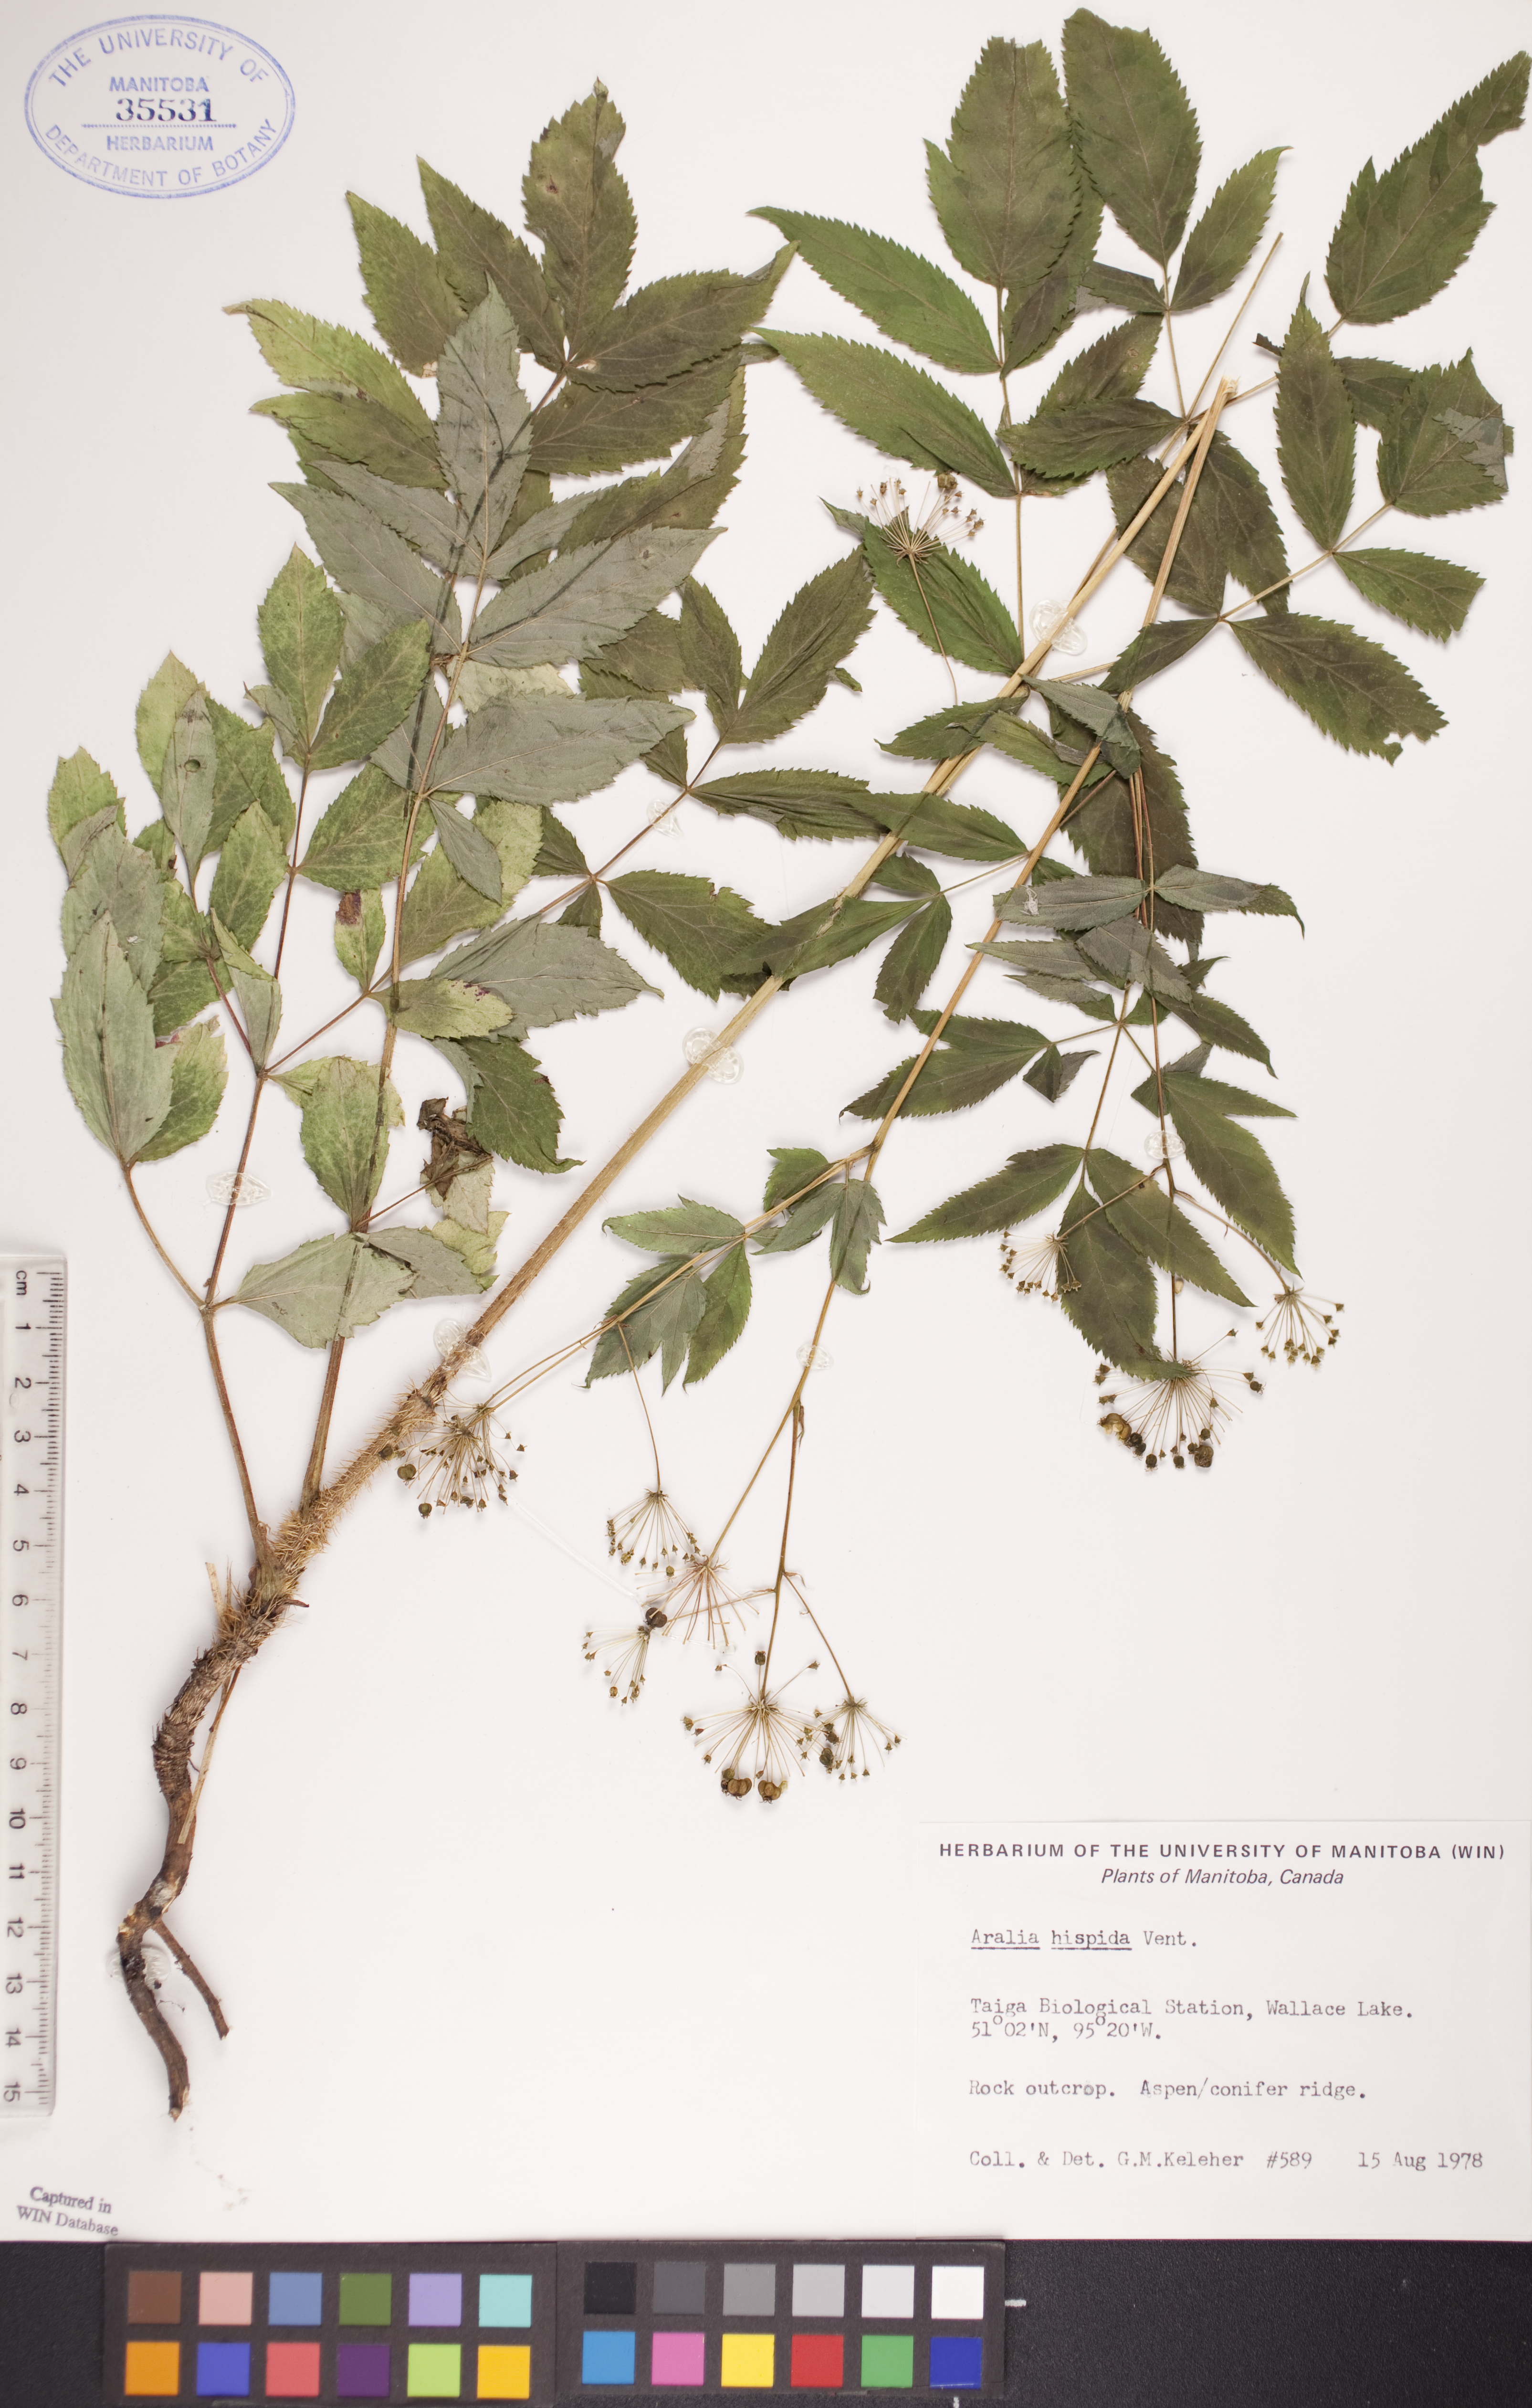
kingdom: Plantae
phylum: Tracheophyta
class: Magnoliopsida
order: Apiales
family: Araliaceae
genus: Aralia
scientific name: Aralia hispida
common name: Bristly sarsaparilla
